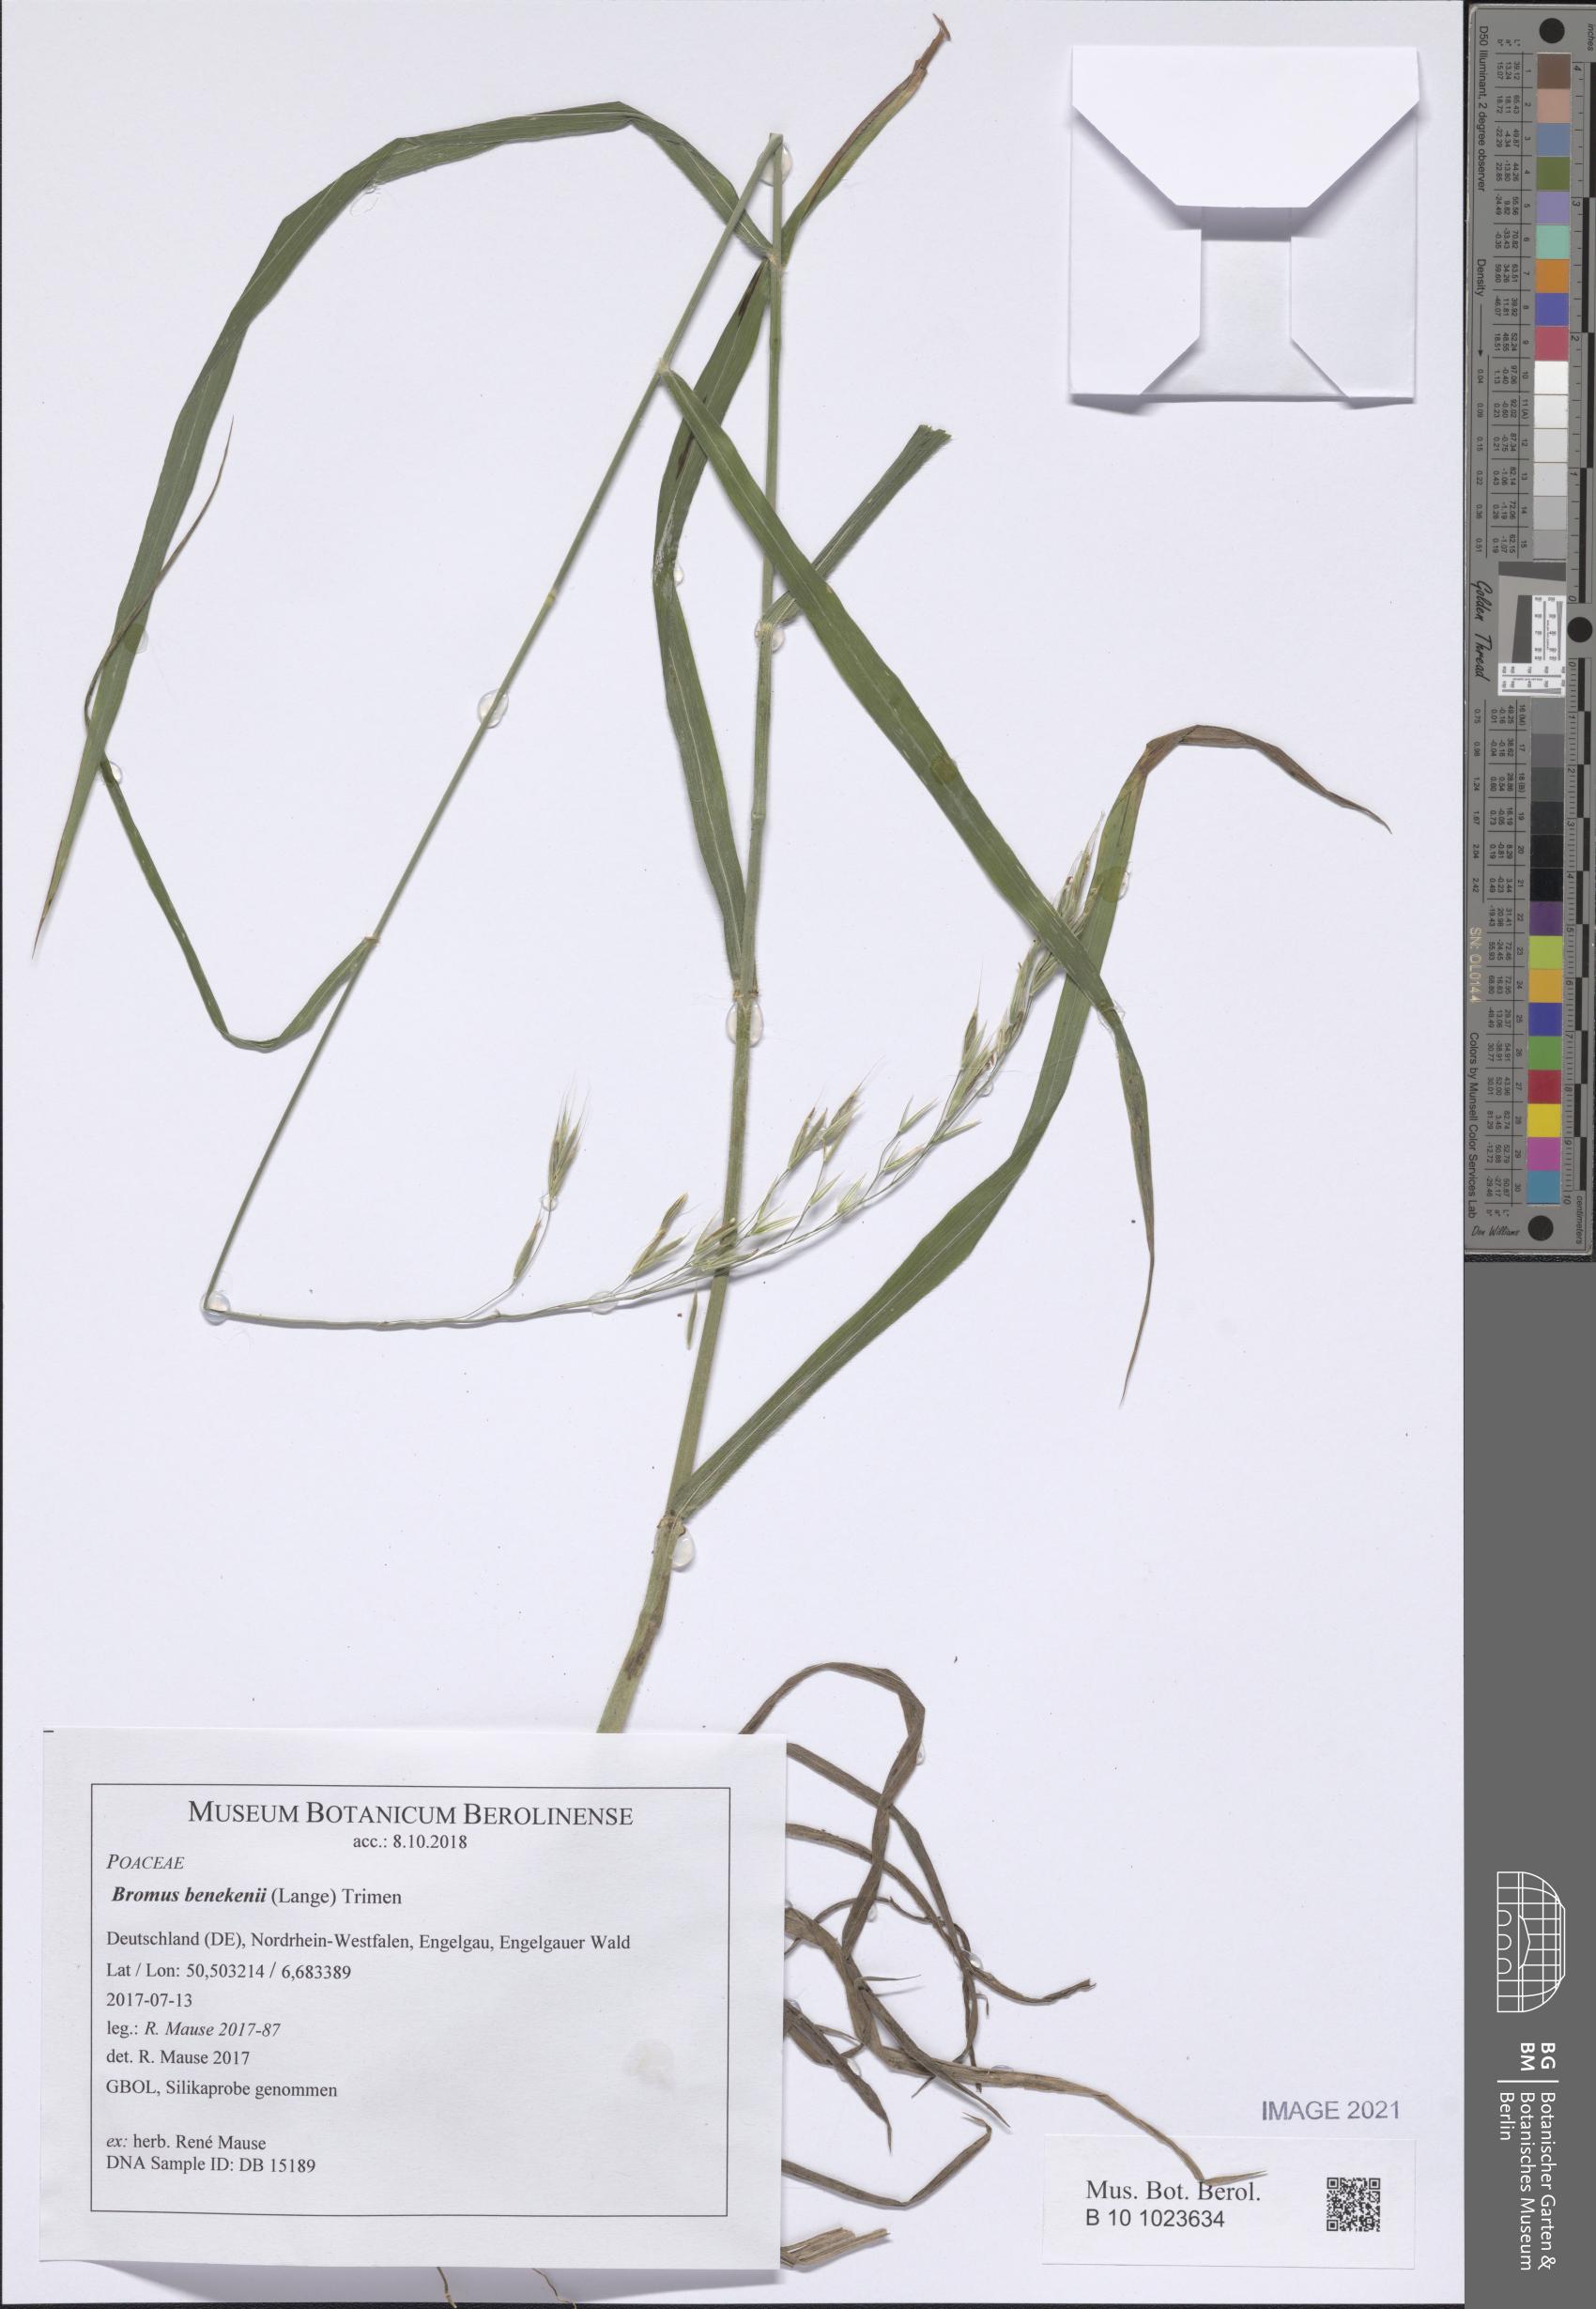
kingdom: Plantae
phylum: Tracheophyta
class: Liliopsida
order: Poales
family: Poaceae
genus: Bromus
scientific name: Bromus benekenii
